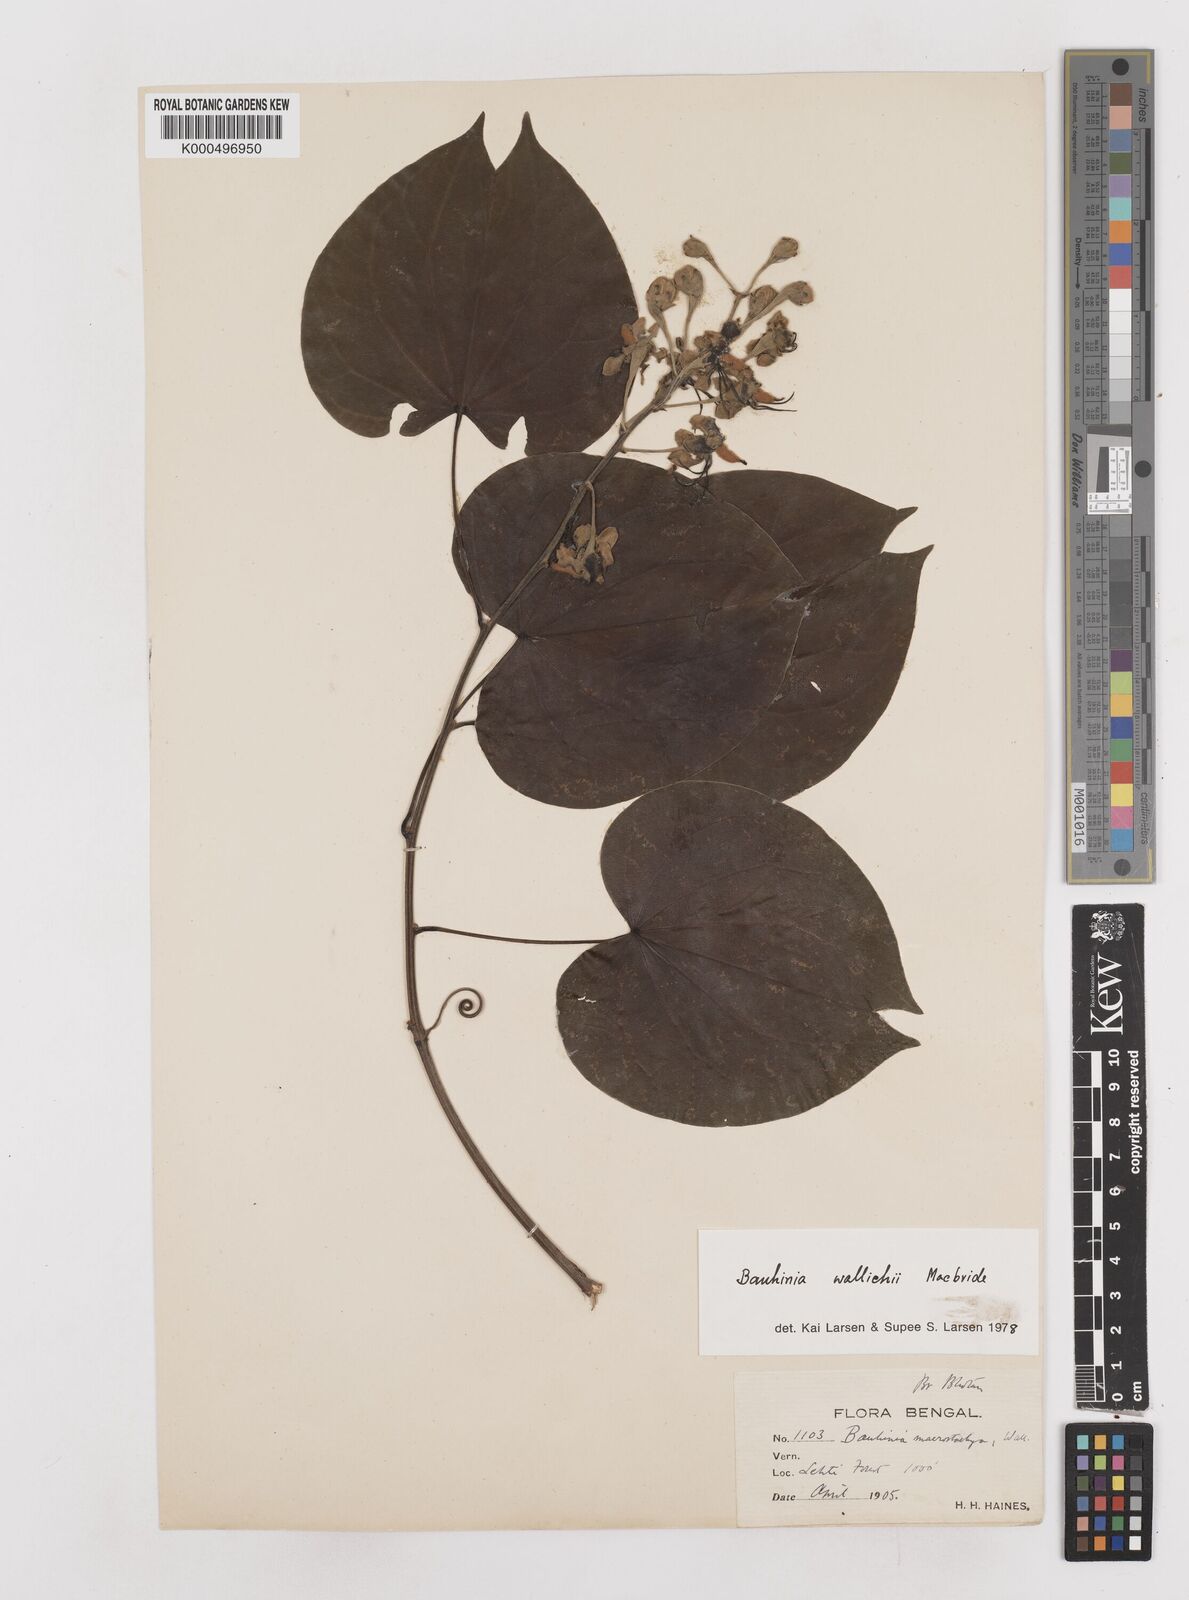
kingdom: Plantae
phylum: Tracheophyta
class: Magnoliopsida
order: Fabales
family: Fabaceae
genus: Phanera
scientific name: Phanera macrostachya
